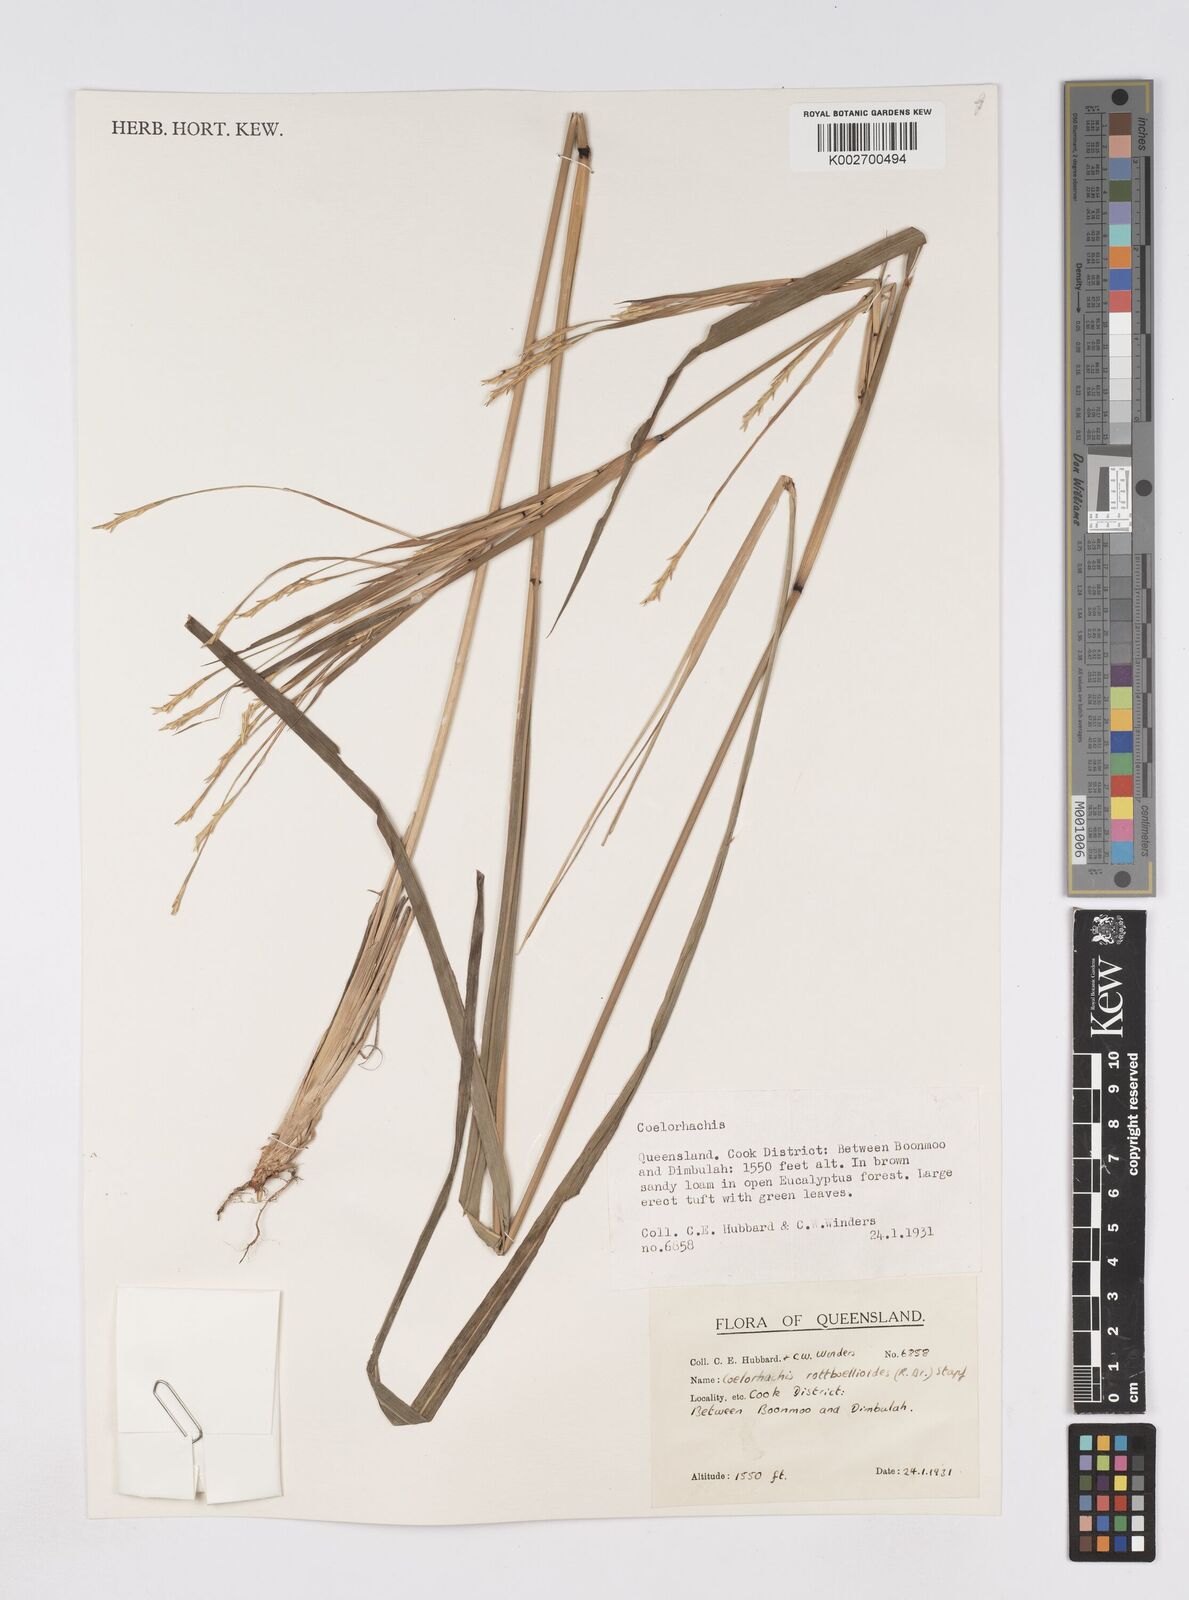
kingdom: Plantae
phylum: Tracheophyta
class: Liliopsida
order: Poales
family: Poaceae
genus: Rottboellia
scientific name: Rottboellia rottboellioides
